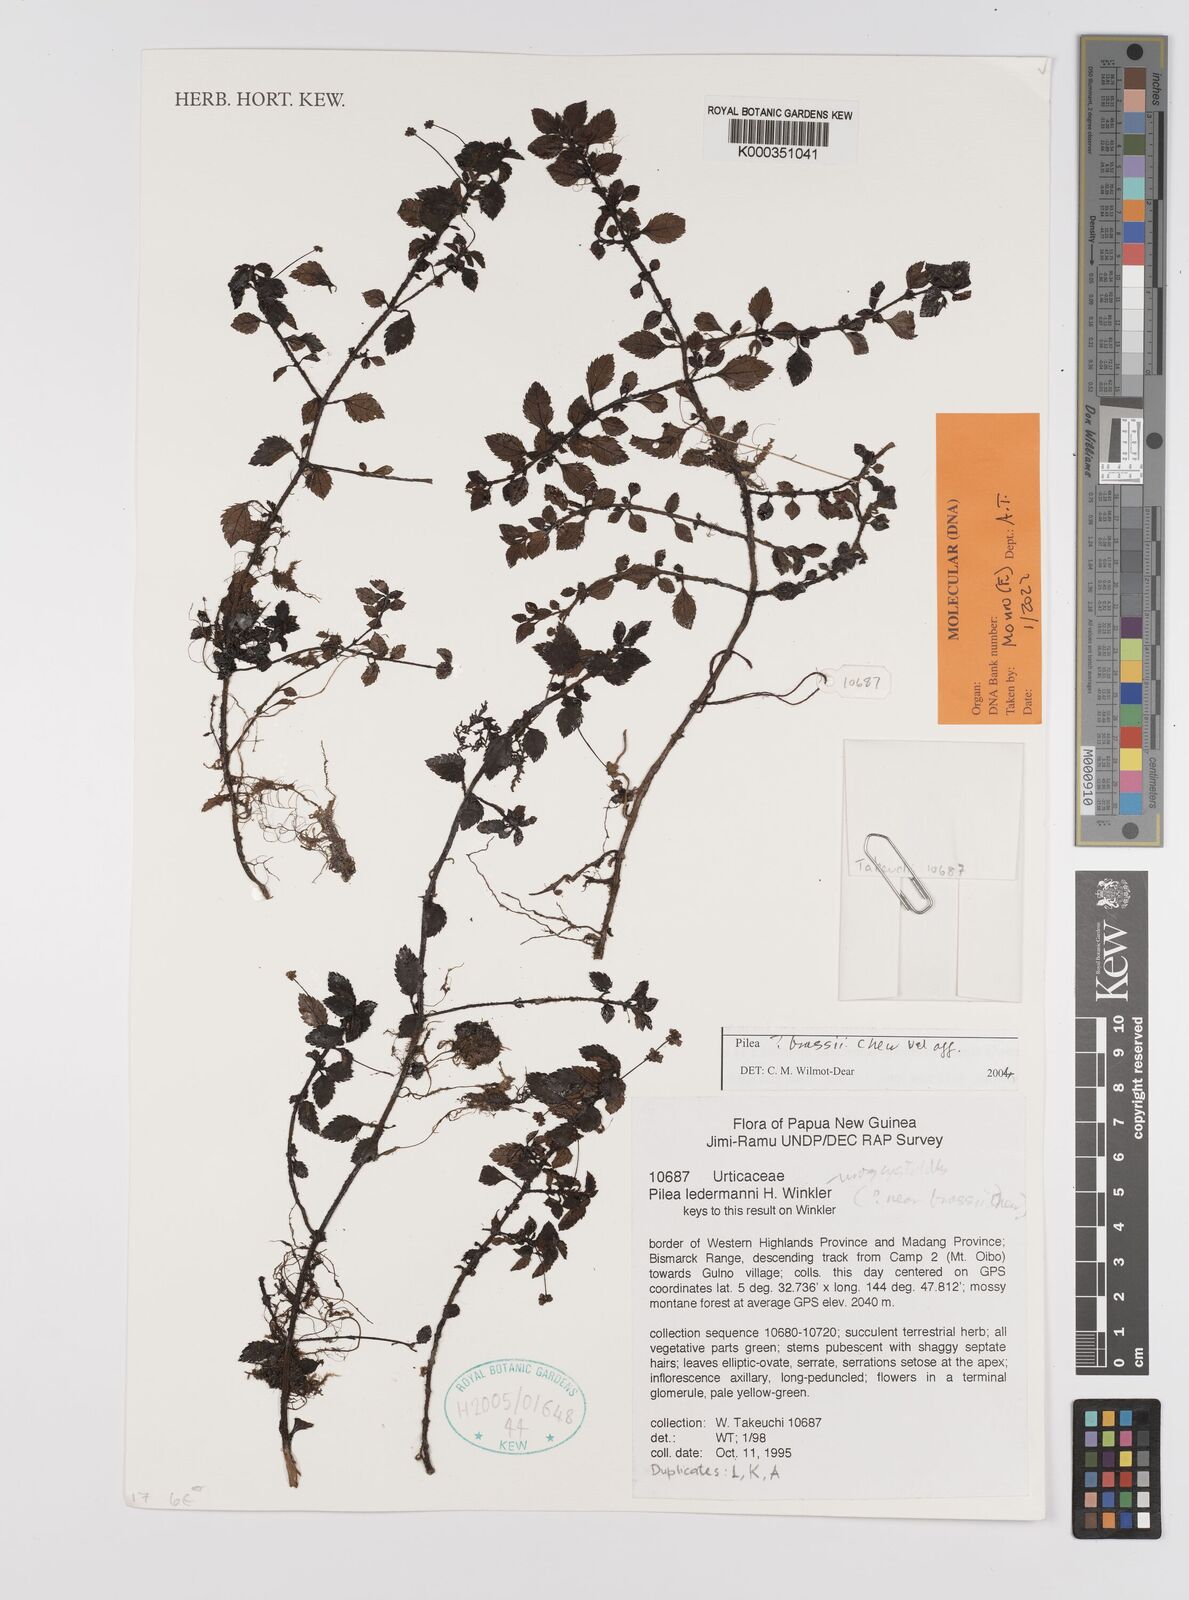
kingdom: Plantae
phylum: Tracheophyta
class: Magnoliopsida
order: Rosales
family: Urticaceae
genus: Pilea
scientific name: Pilea
